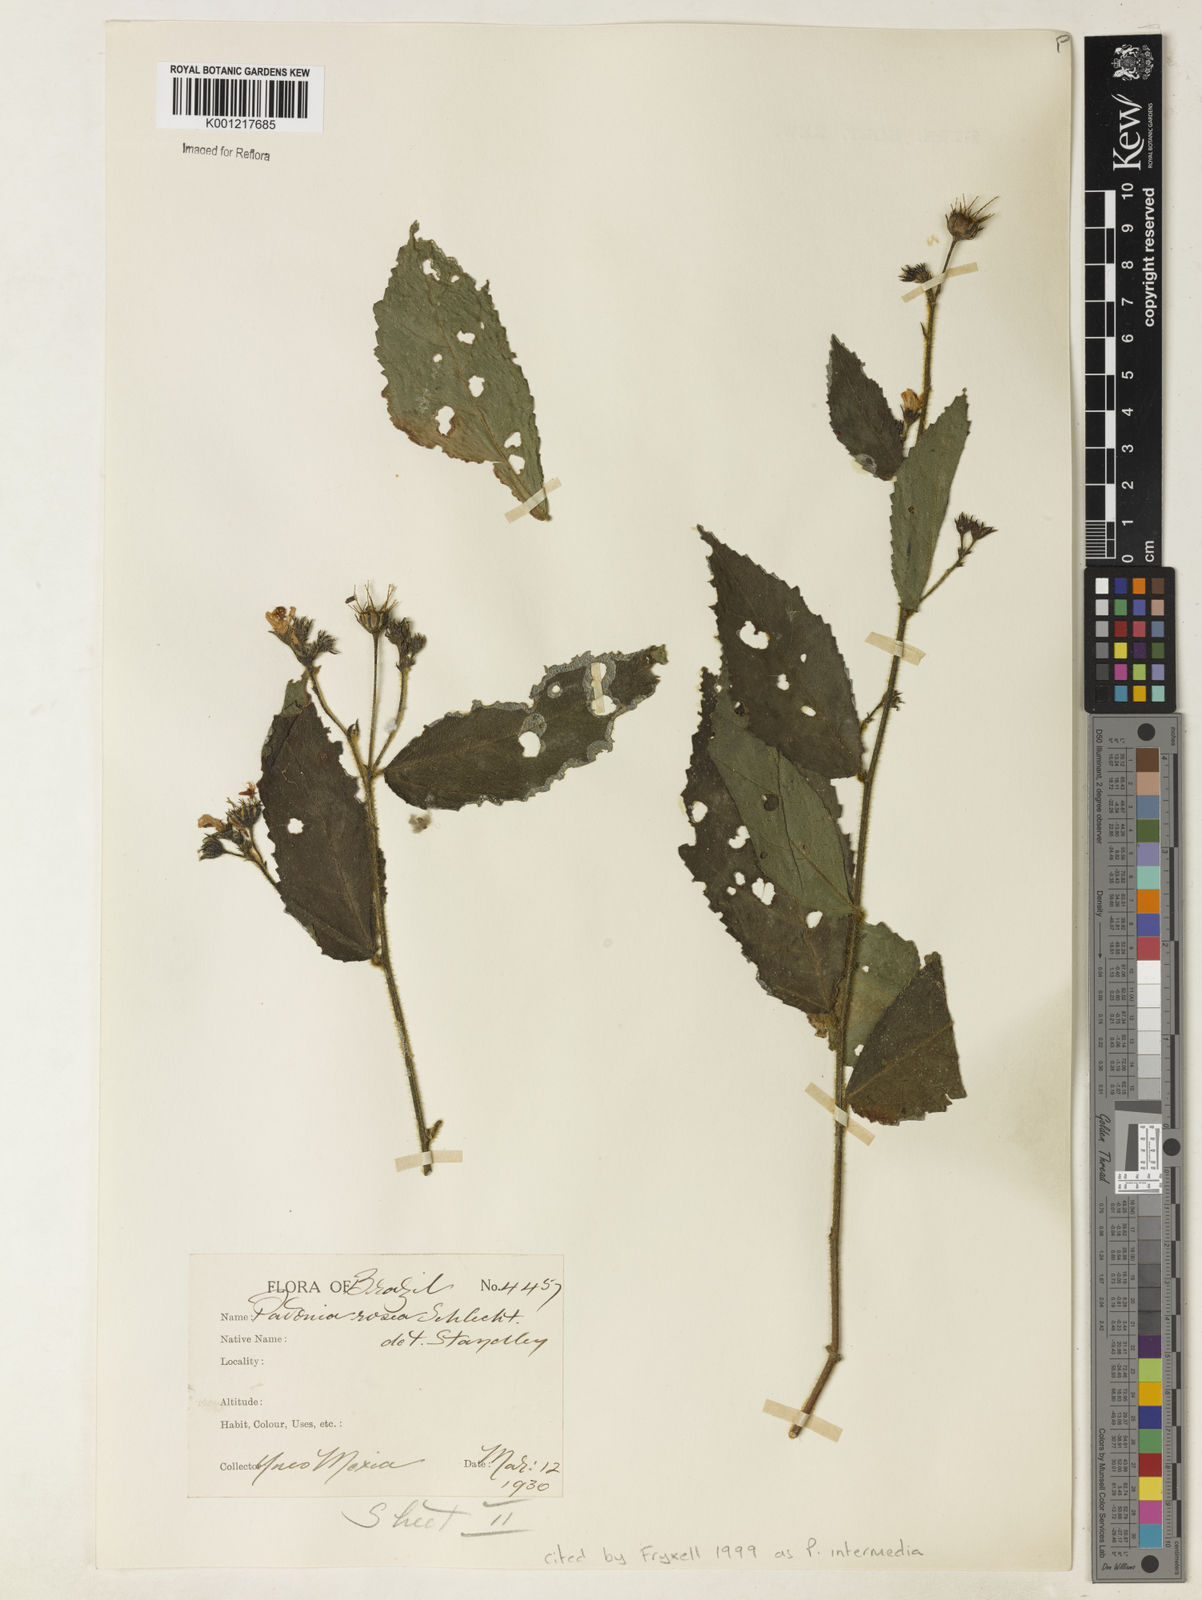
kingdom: Plantae
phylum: Tracheophyta
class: Magnoliopsida
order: Malvales
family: Malvaceae
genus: Pavonia
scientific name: Pavonia intermedia
